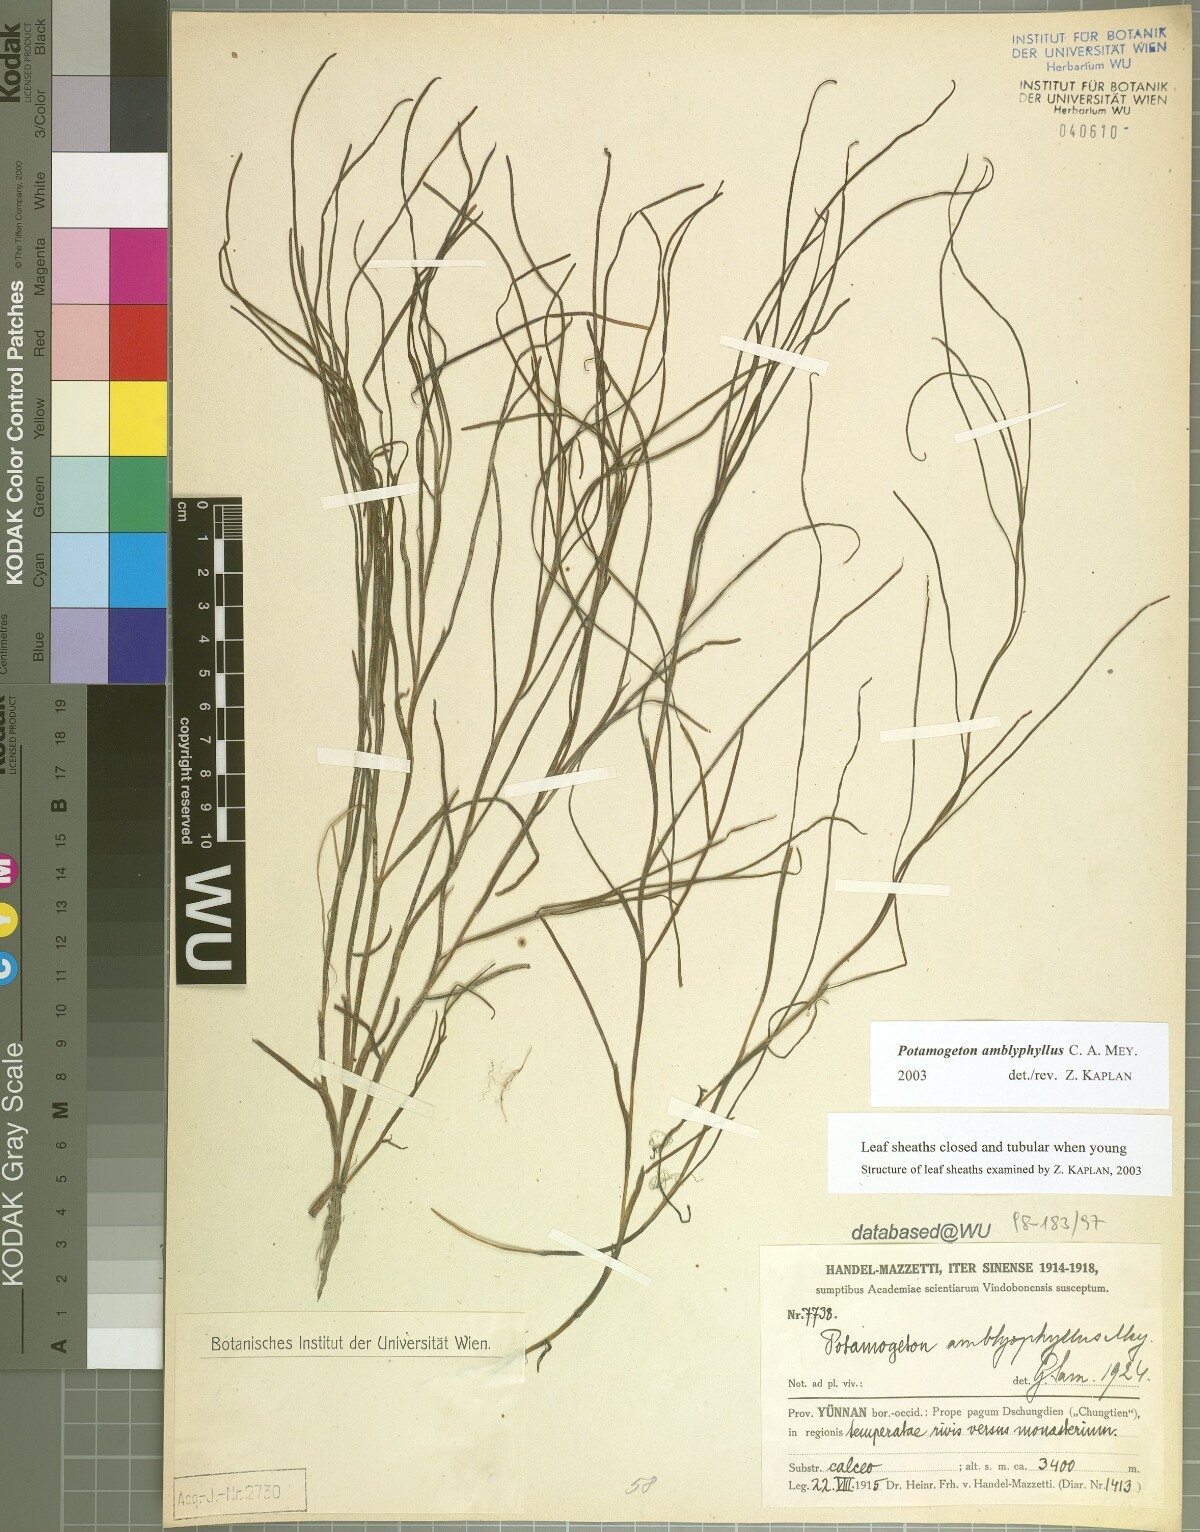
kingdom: Plantae
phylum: Tracheophyta
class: Liliopsida
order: Alismatales
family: Potamogetonaceae
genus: Stuckenia
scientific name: Stuckenia amblyophylla
